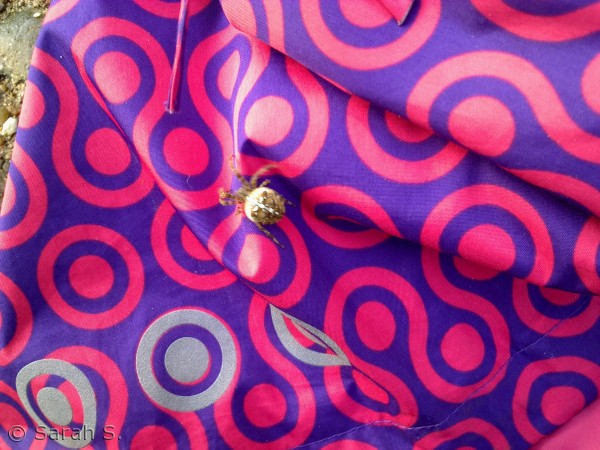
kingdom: Animalia
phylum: Arthropoda
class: Arachnida
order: Araneae
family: Araneidae
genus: Araneus
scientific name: Araneus diadematus
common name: Korsedderkop
